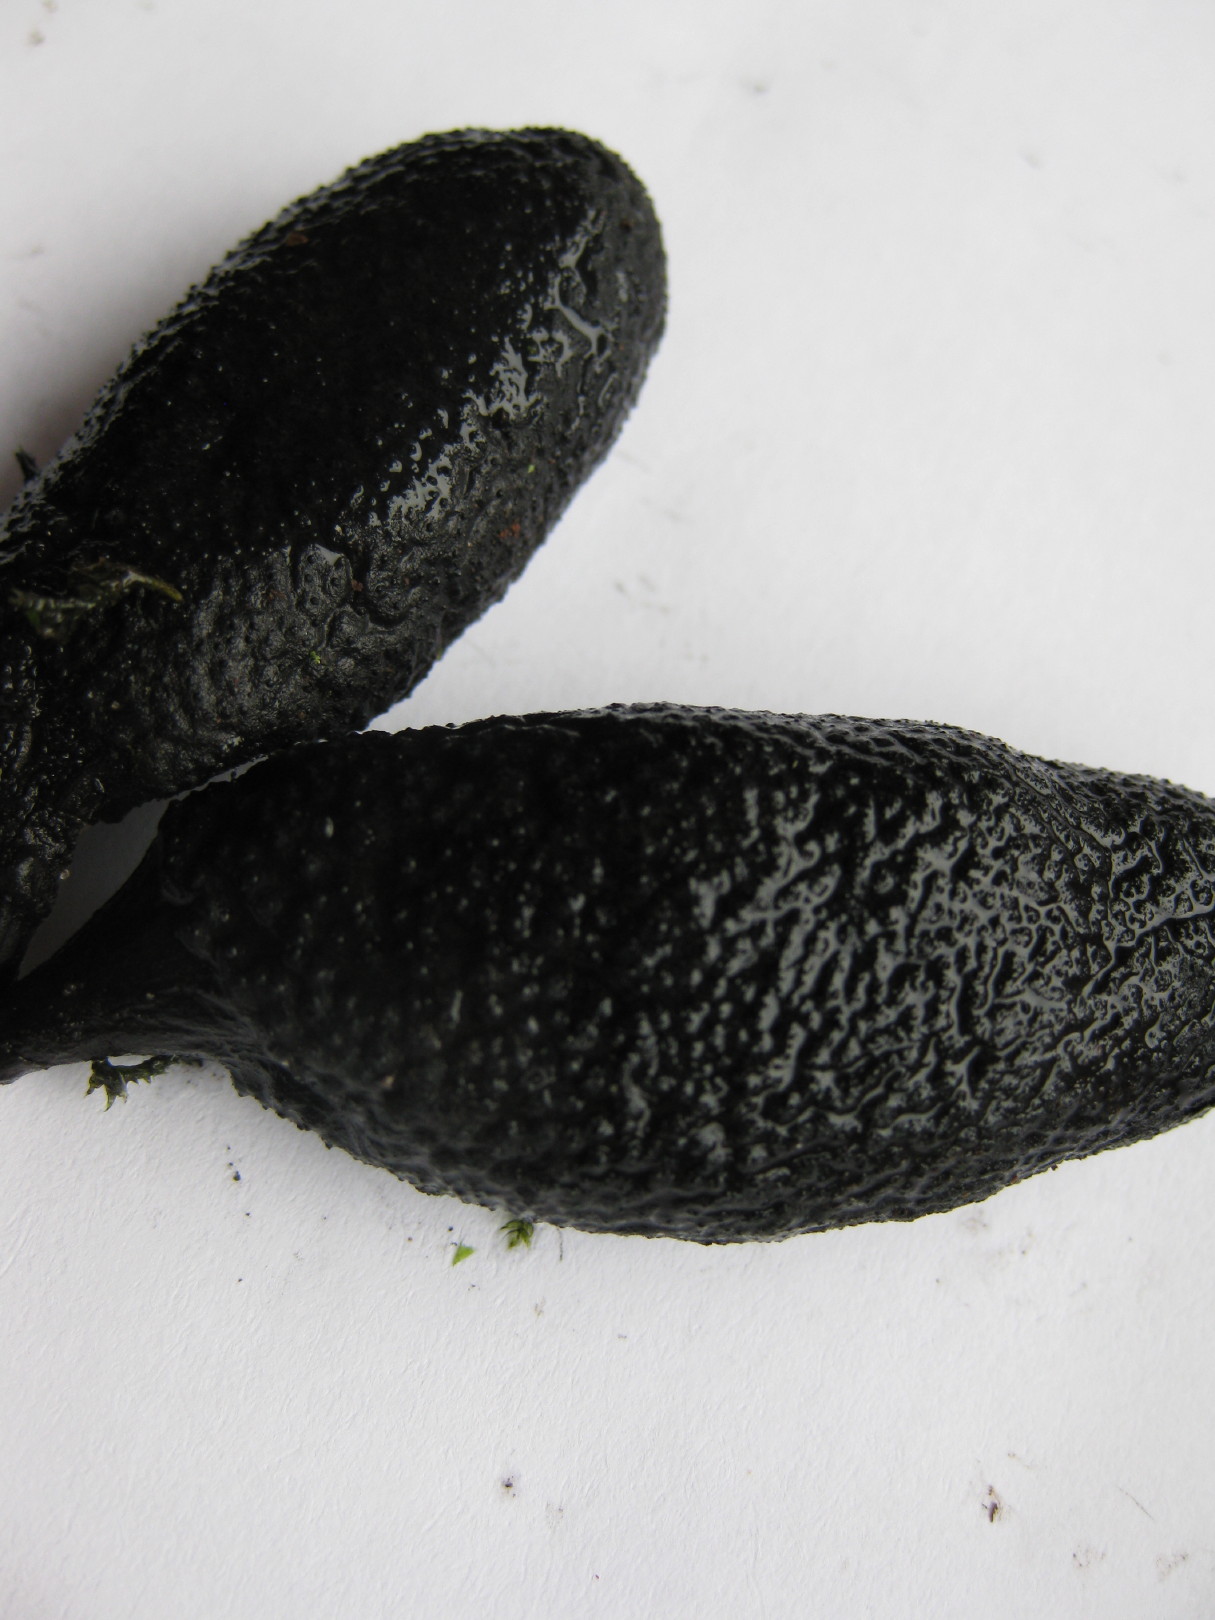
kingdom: Fungi
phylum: Ascomycota
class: Sordariomycetes
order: Xylariales
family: Xylariaceae
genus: Xylaria
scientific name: Xylaria polymorpha
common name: kølle-stødsvamp
